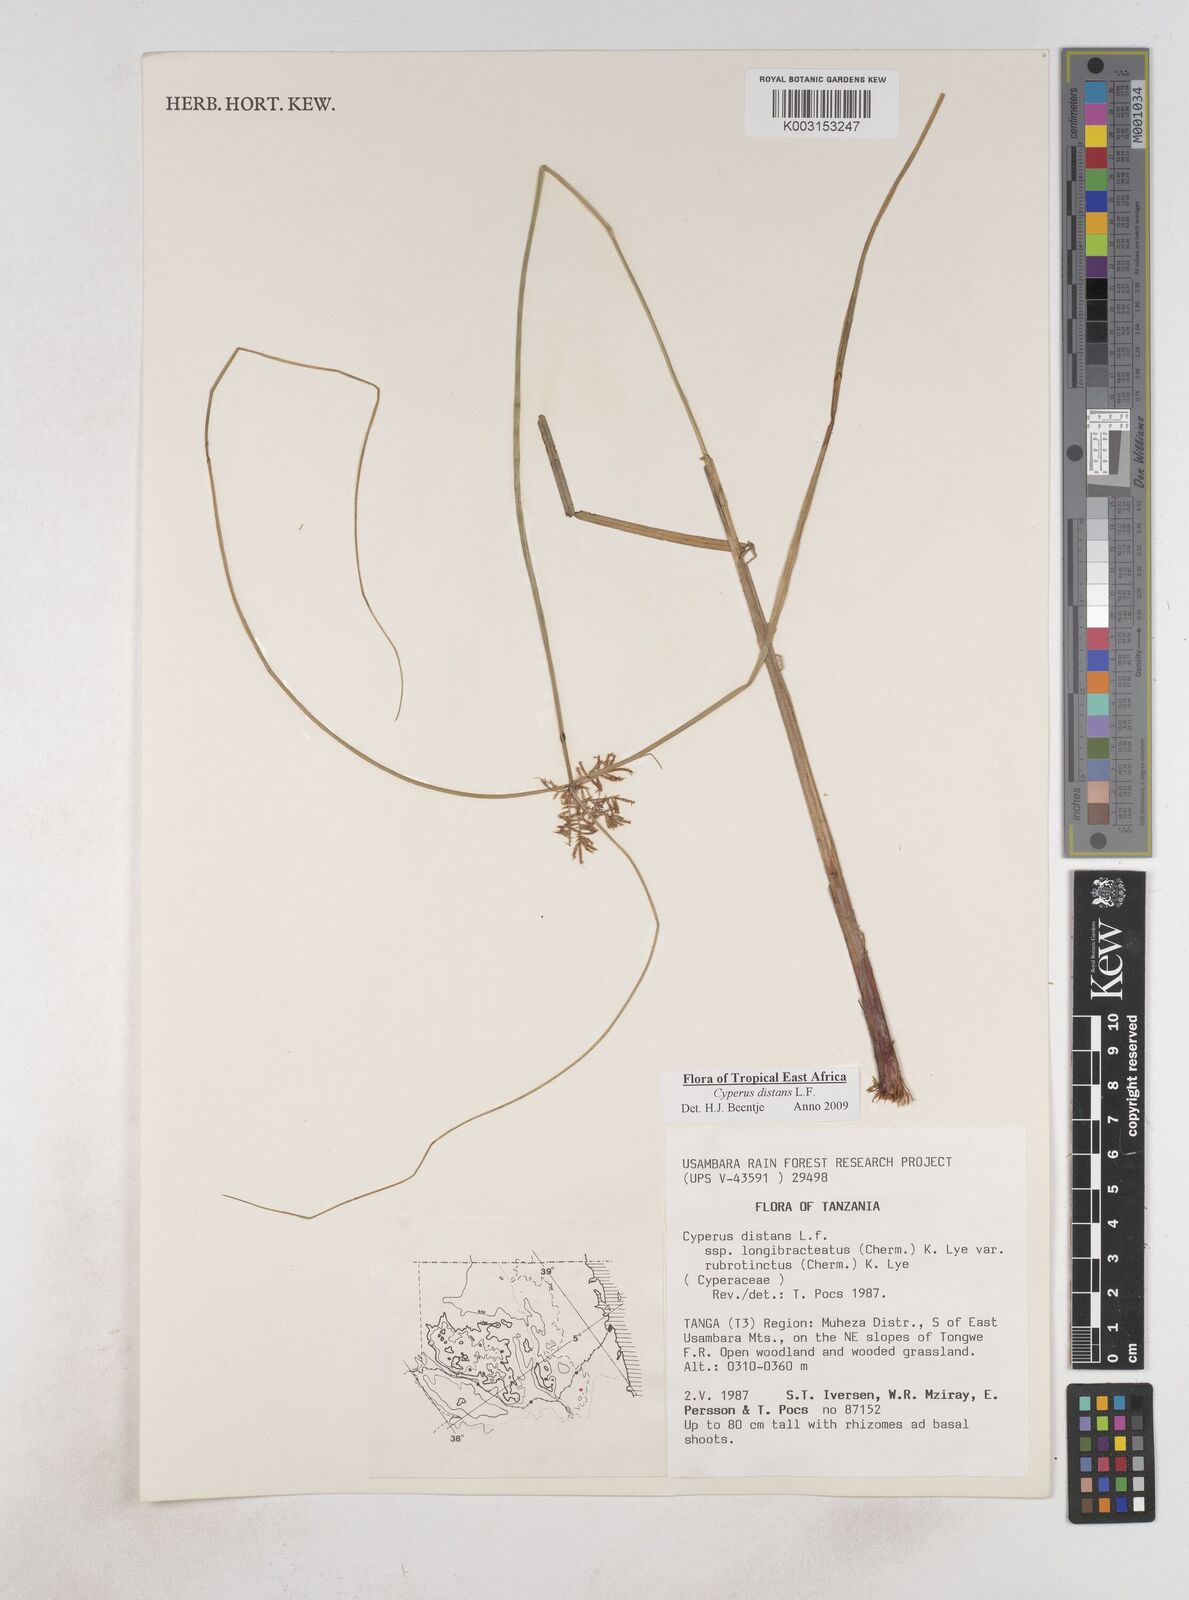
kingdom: Plantae
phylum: Tracheophyta
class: Liliopsida
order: Poales
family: Cyperaceae
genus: Cyperus
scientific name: Cyperus distans
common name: Slender cyperus
